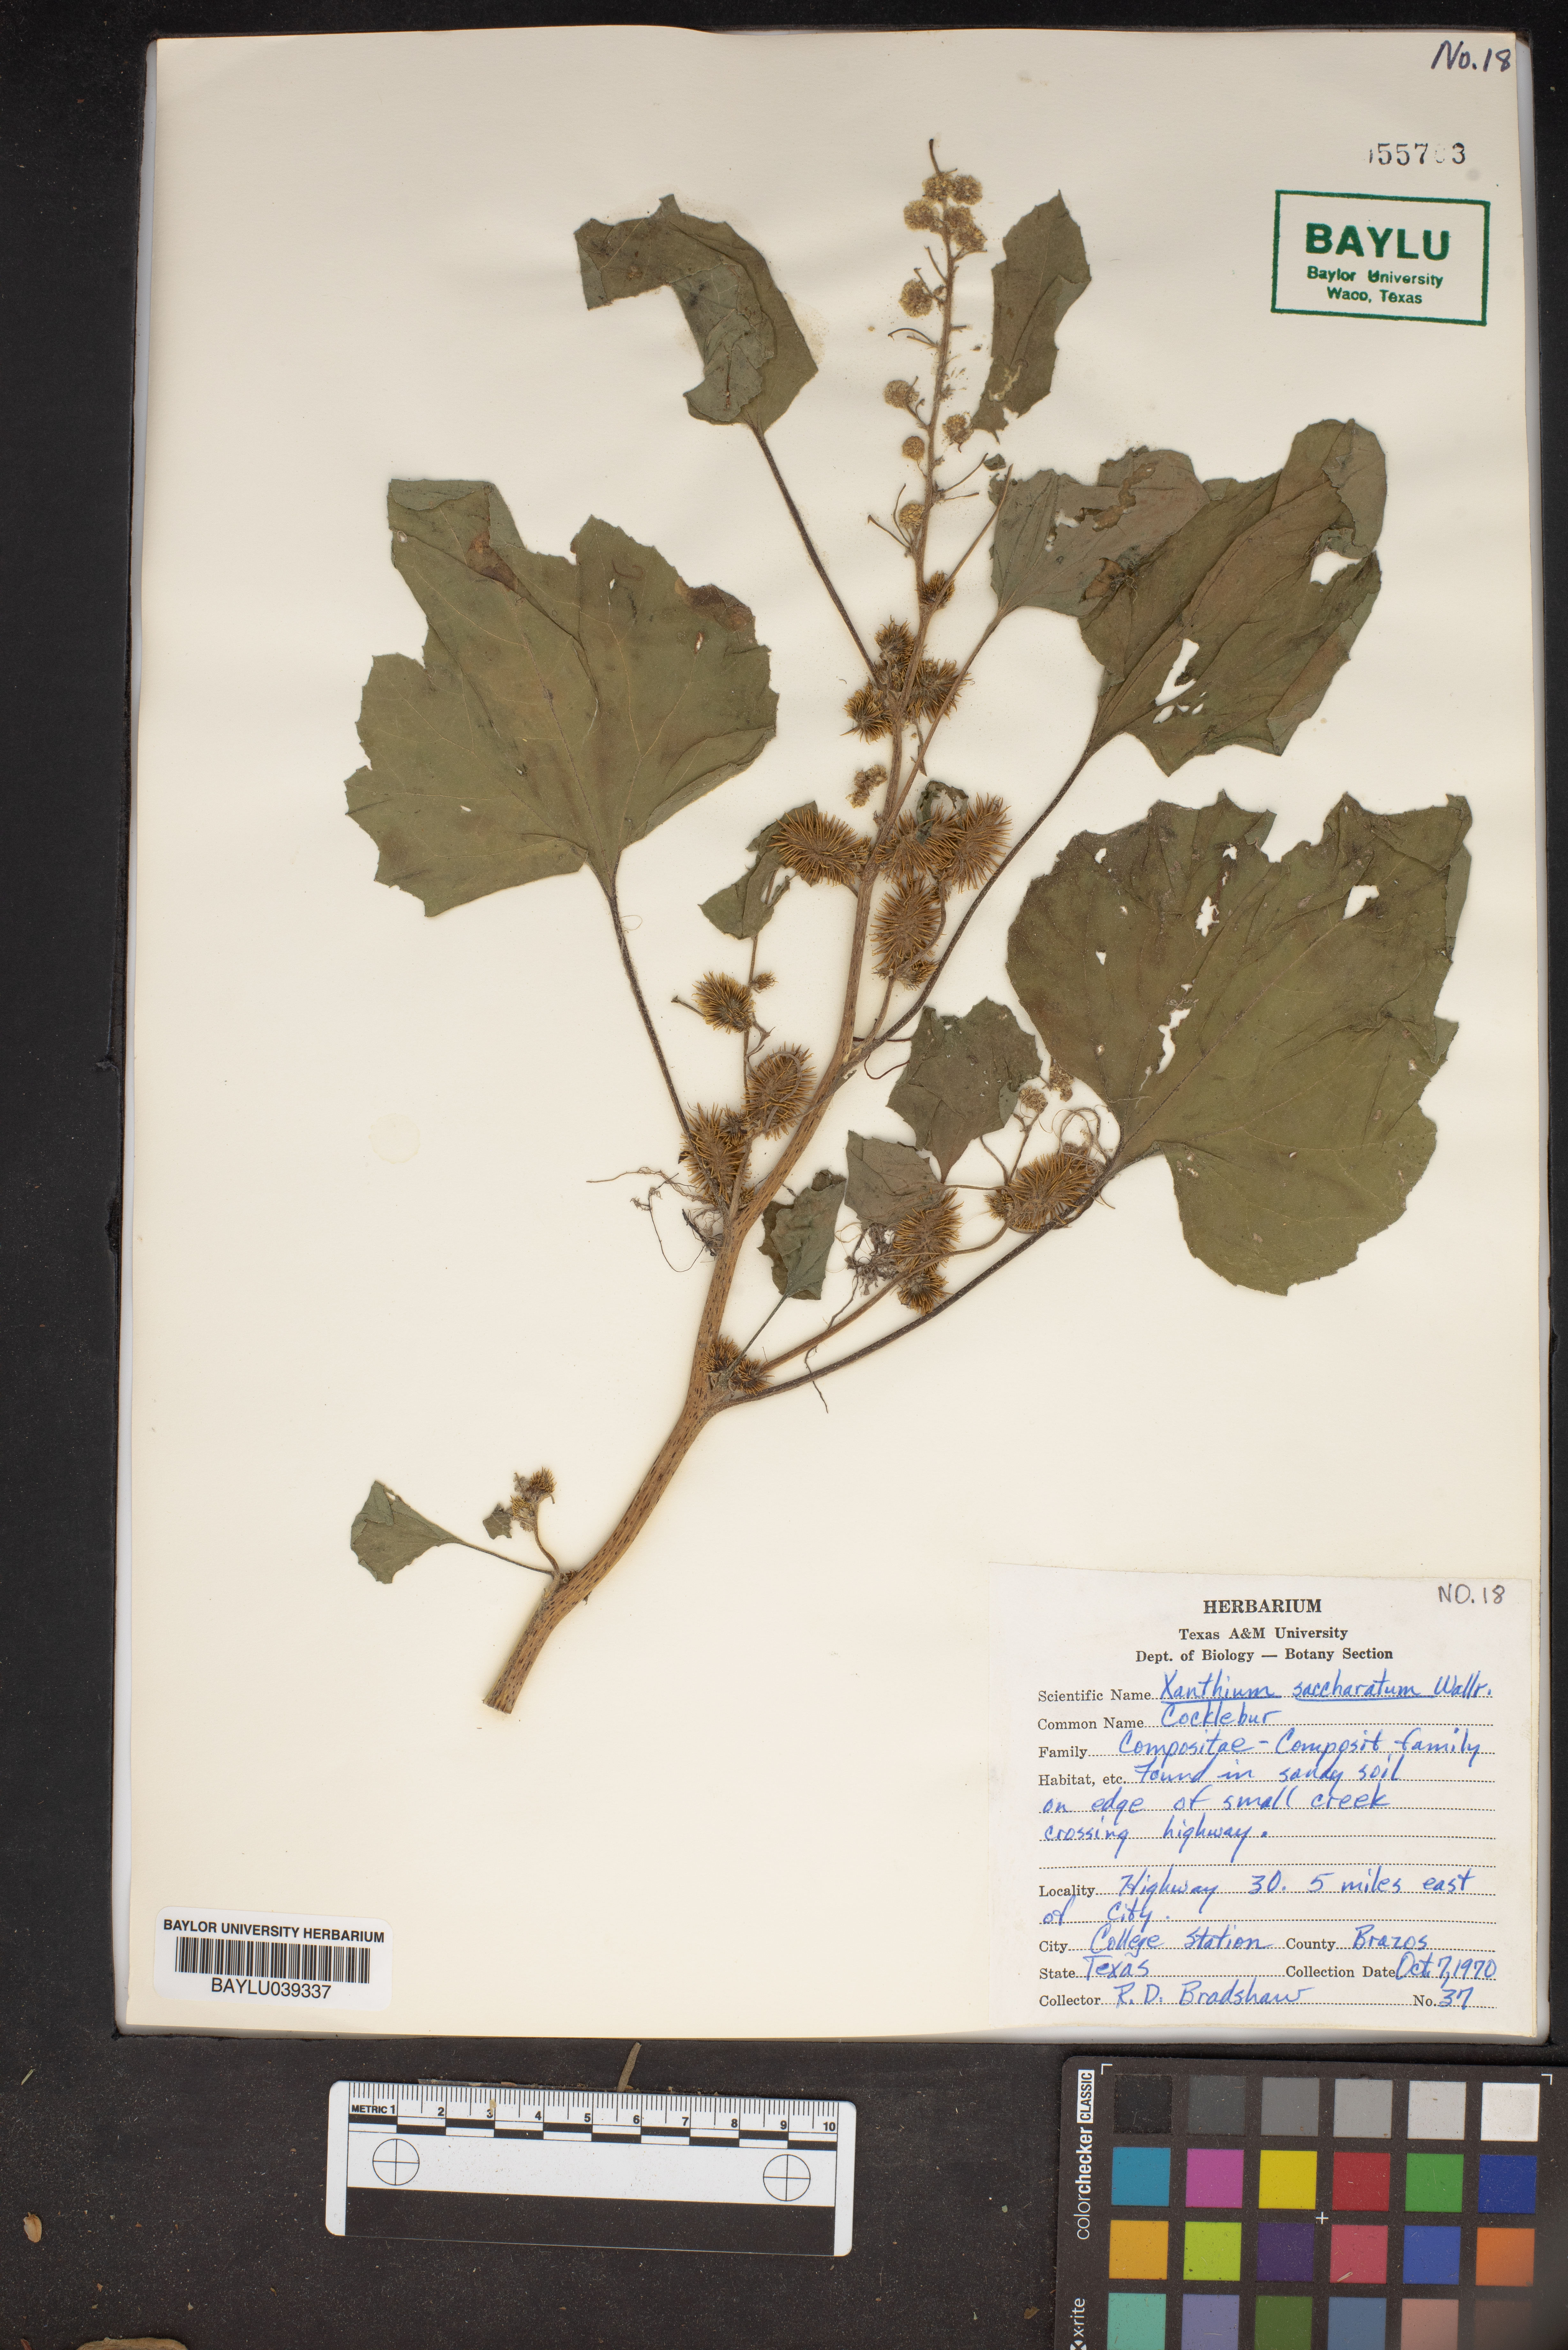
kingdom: Plantae
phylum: Tracheophyta
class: Magnoliopsida
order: Asterales
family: Asteraceae
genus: Xanthium
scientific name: Xanthium orientale
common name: Californian burr
